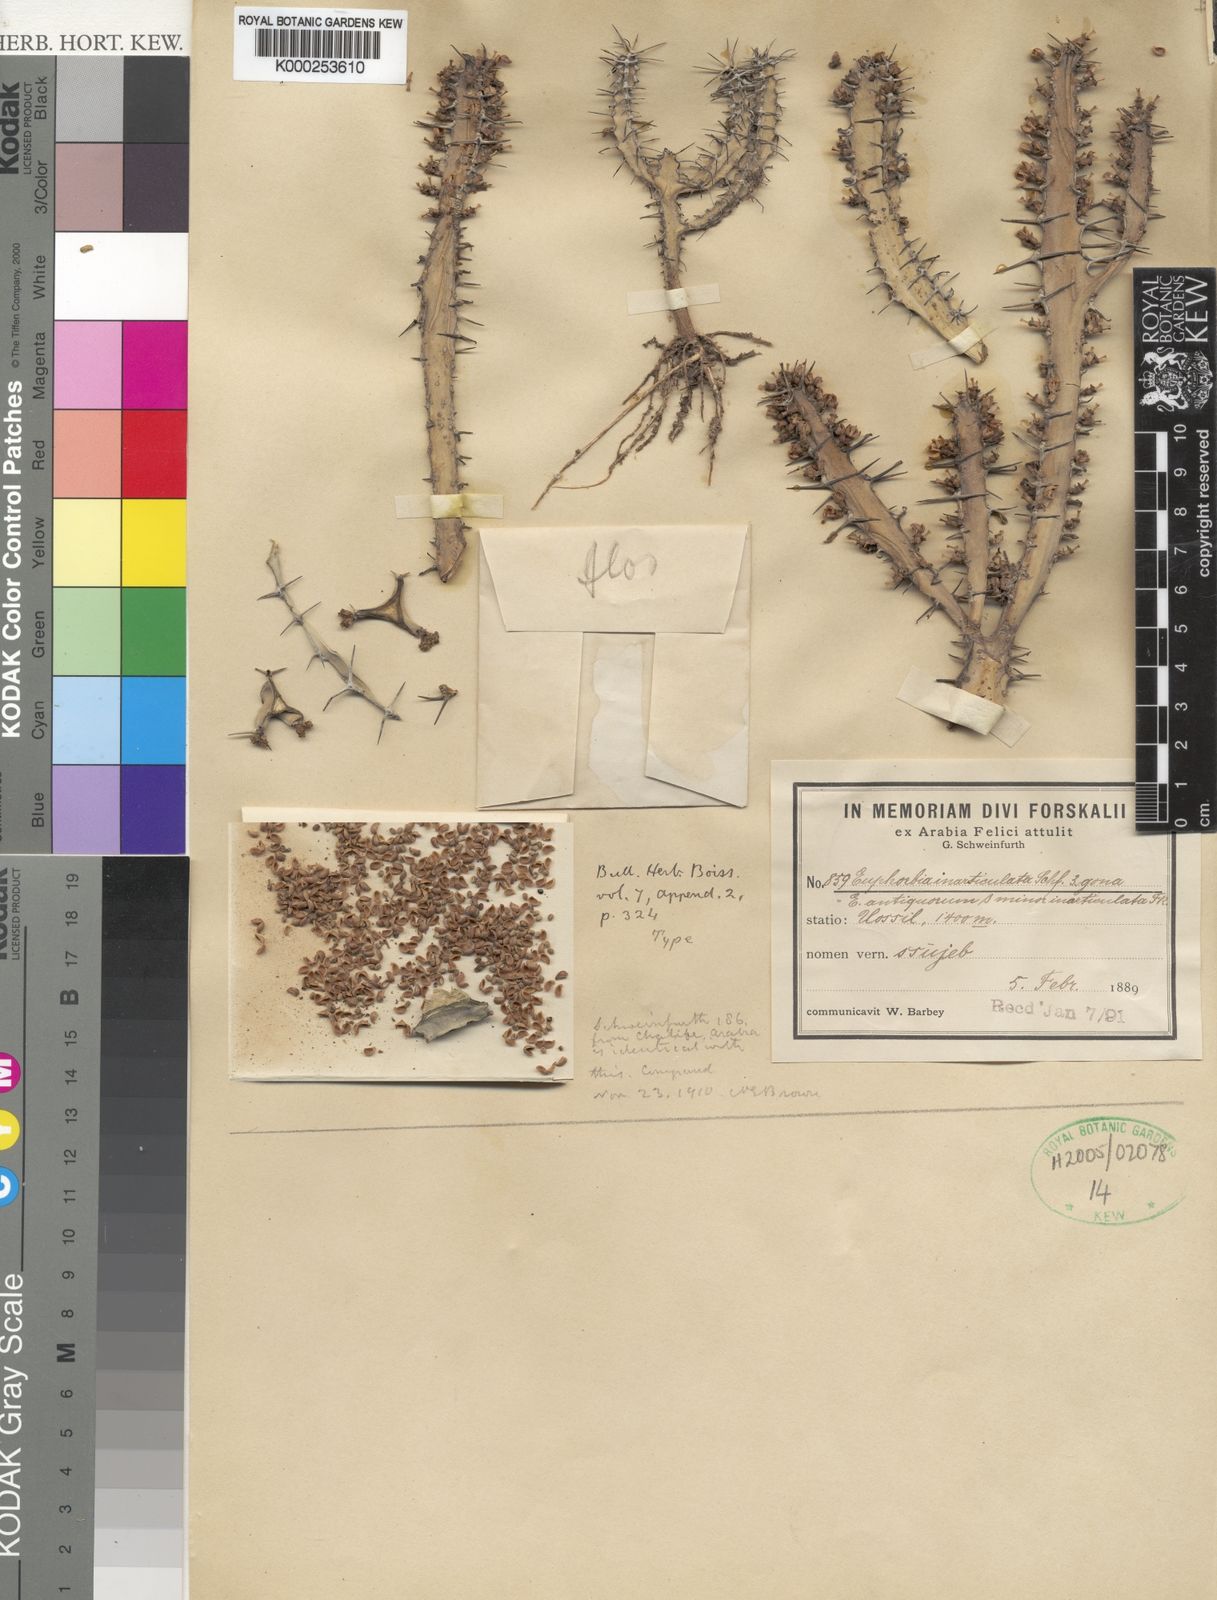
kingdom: Plantae
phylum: Tracheophyta
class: Magnoliopsida
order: Malpighiales
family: Euphorbiaceae
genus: Euphorbia
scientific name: Euphorbia inarticulata
